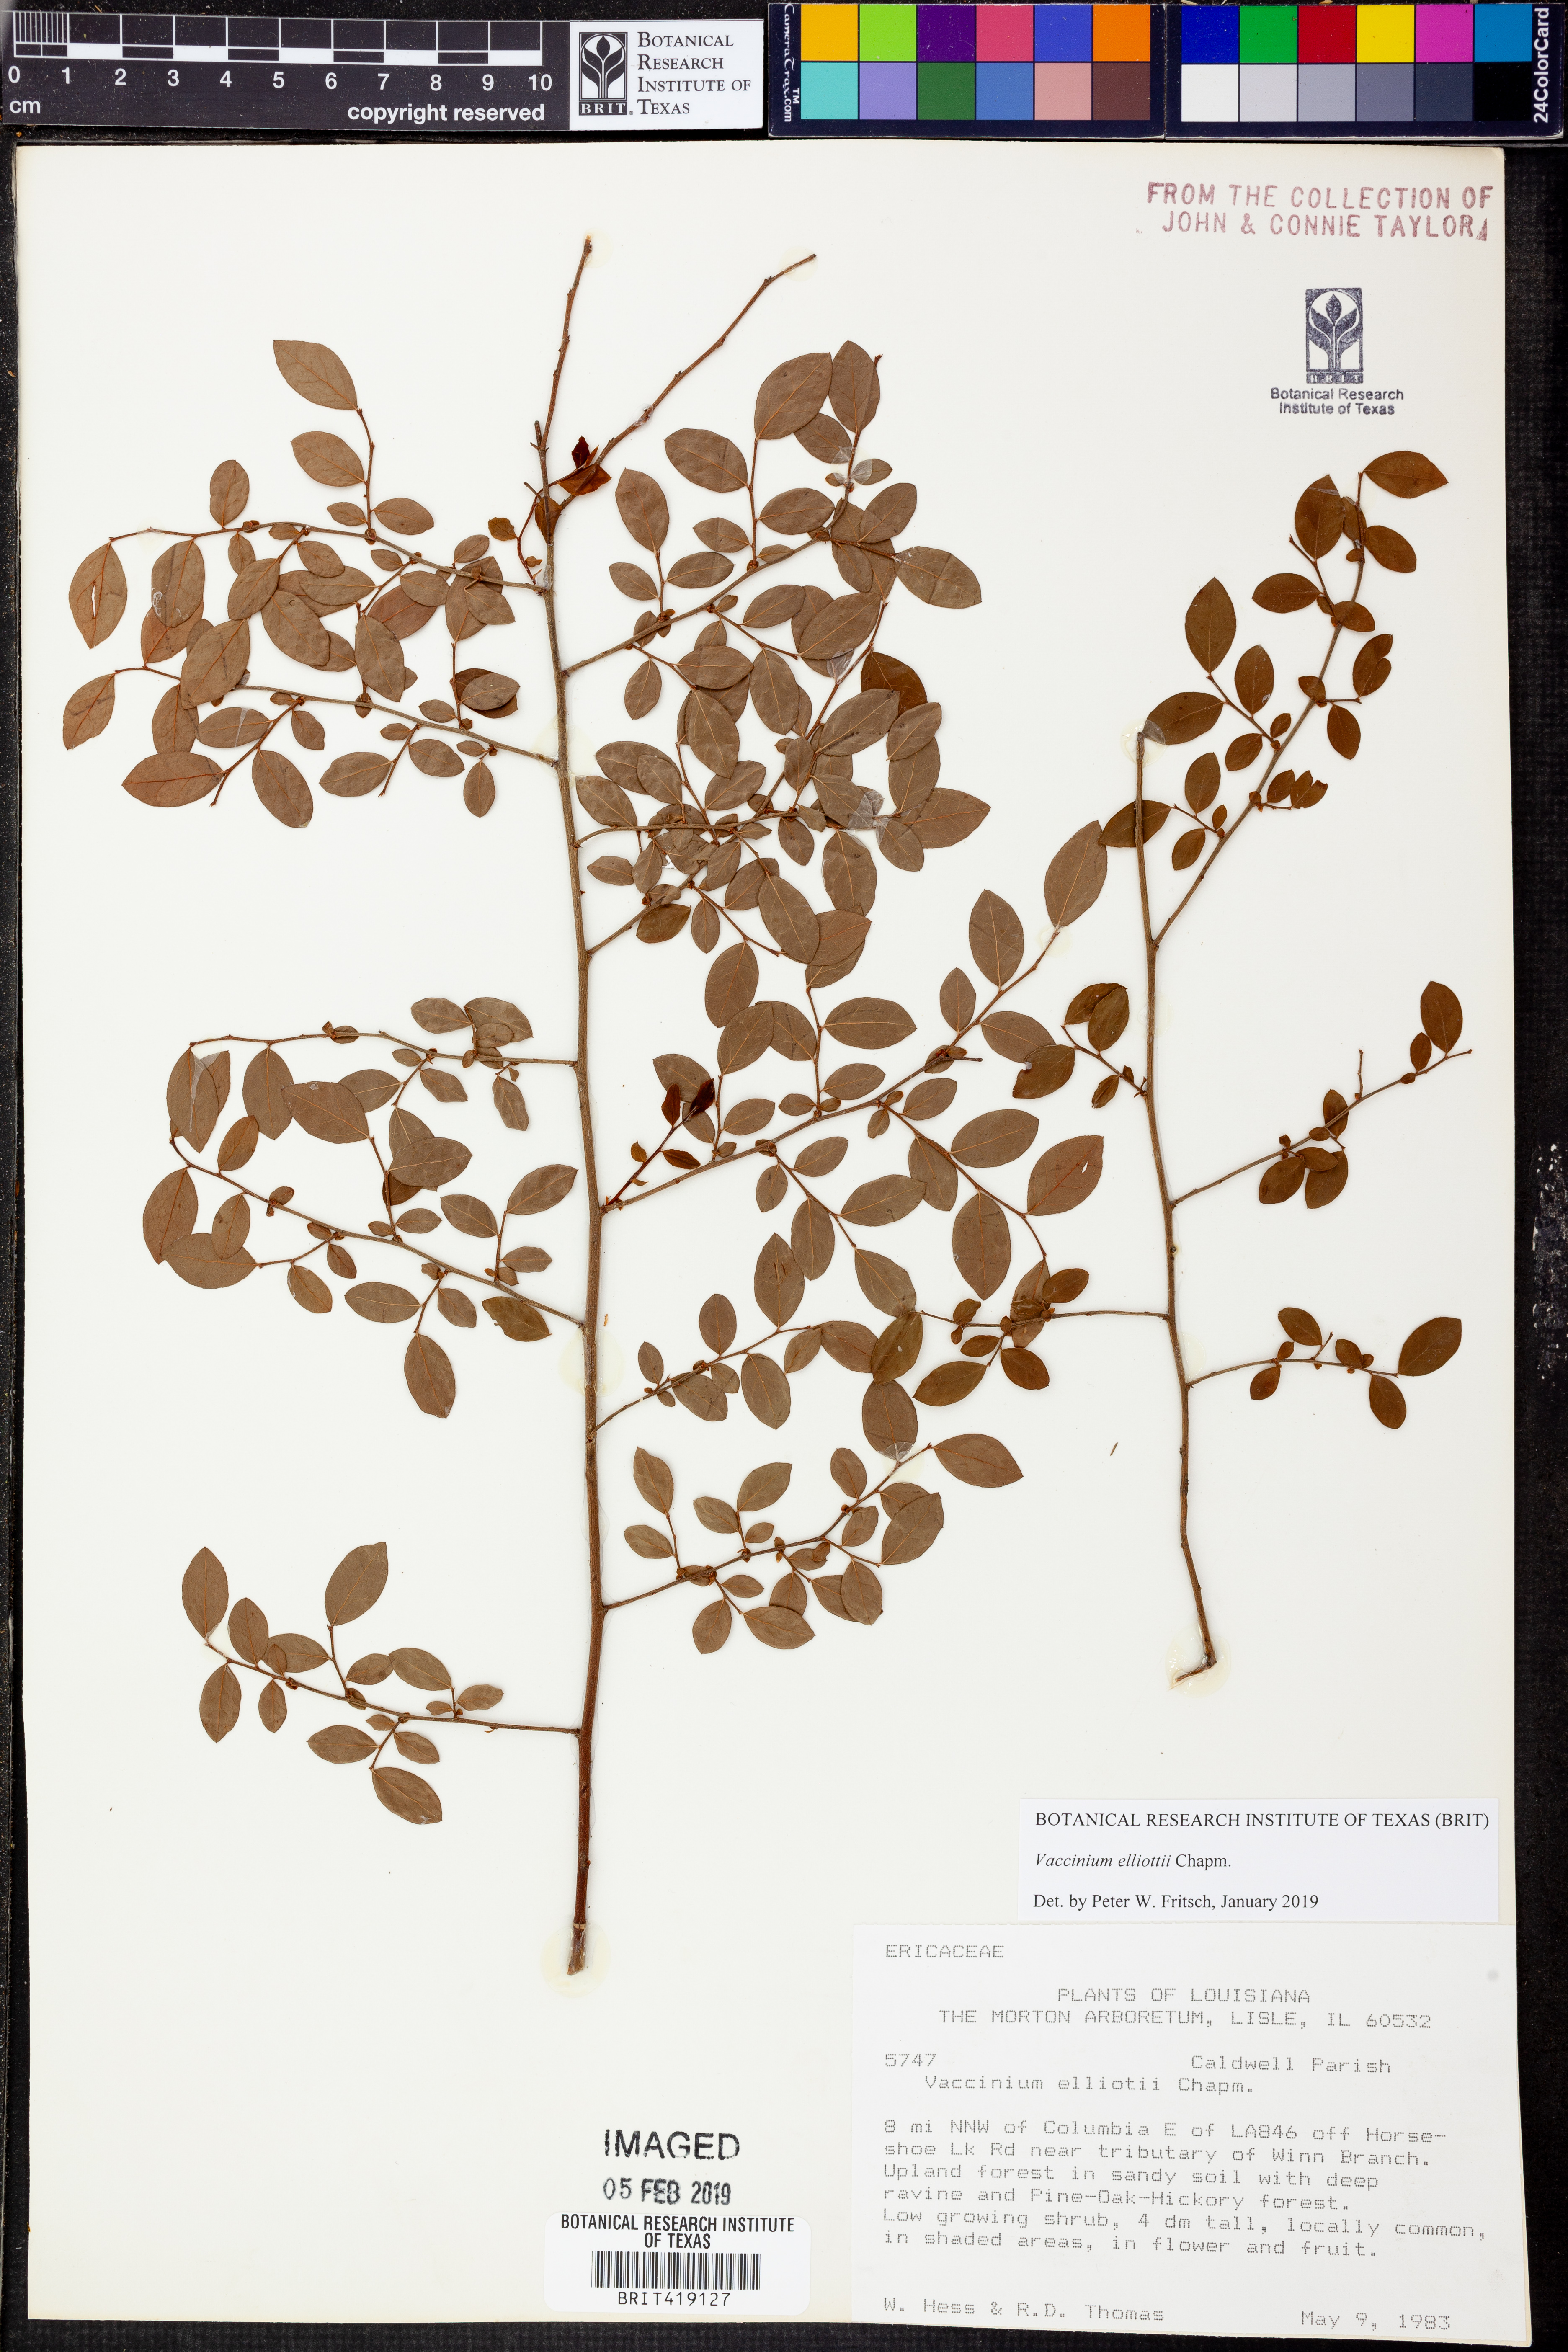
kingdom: Plantae
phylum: Tracheophyta
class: Magnoliopsida
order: Ericales
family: Ericaceae
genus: Vaccinium
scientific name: Vaccinium corymbosum
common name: Blueberry
